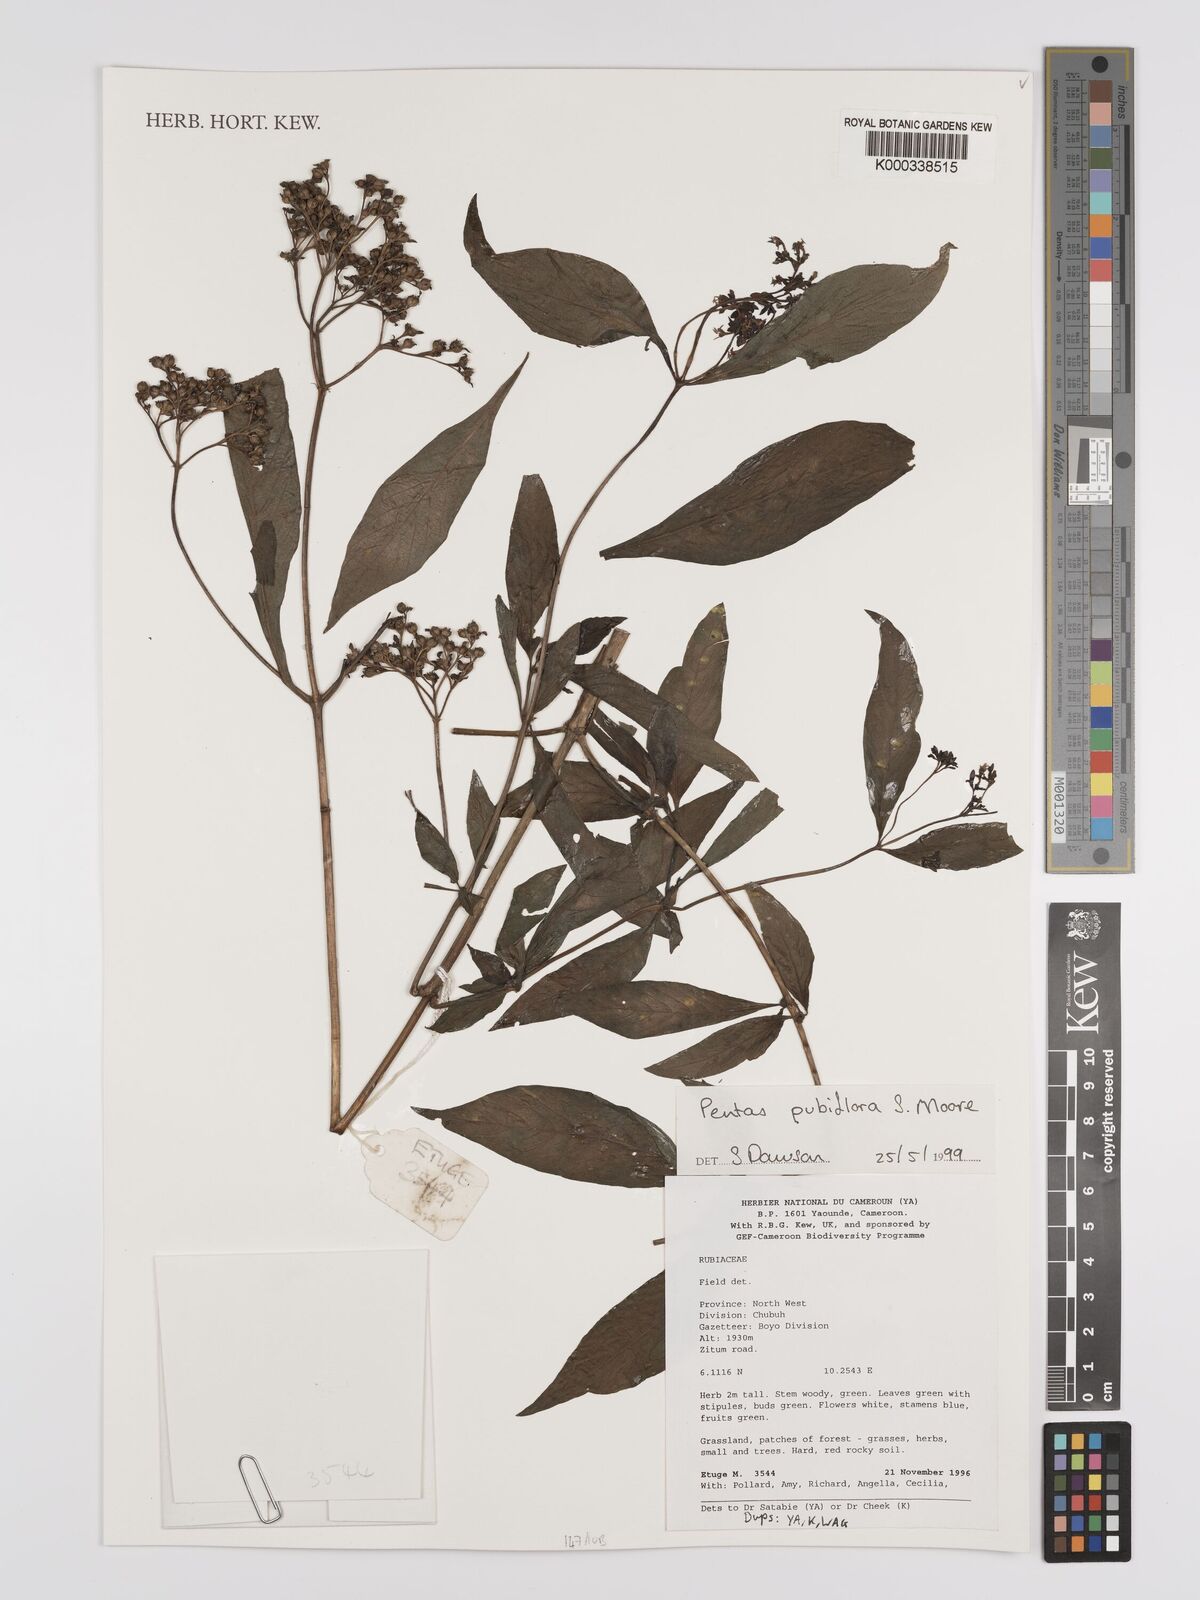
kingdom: Plantae
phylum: Tracheophyta
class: Magnoliopsida
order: Gentianales
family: Rubiaceae
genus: Pentas
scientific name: Pentas pubiflora
